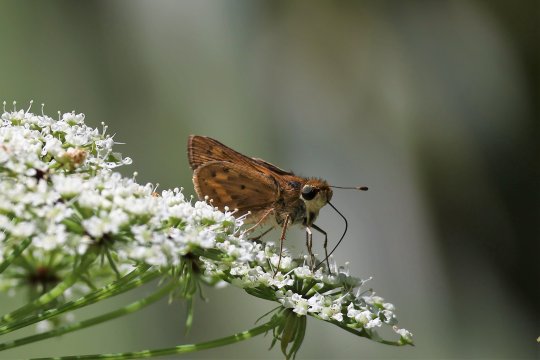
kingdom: Animalia
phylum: Arthropoda
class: Insecta
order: Lepidoptera
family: Hesperiidae
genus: Hylephila
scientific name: Hylephila phyleus
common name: Fiery Skipper
